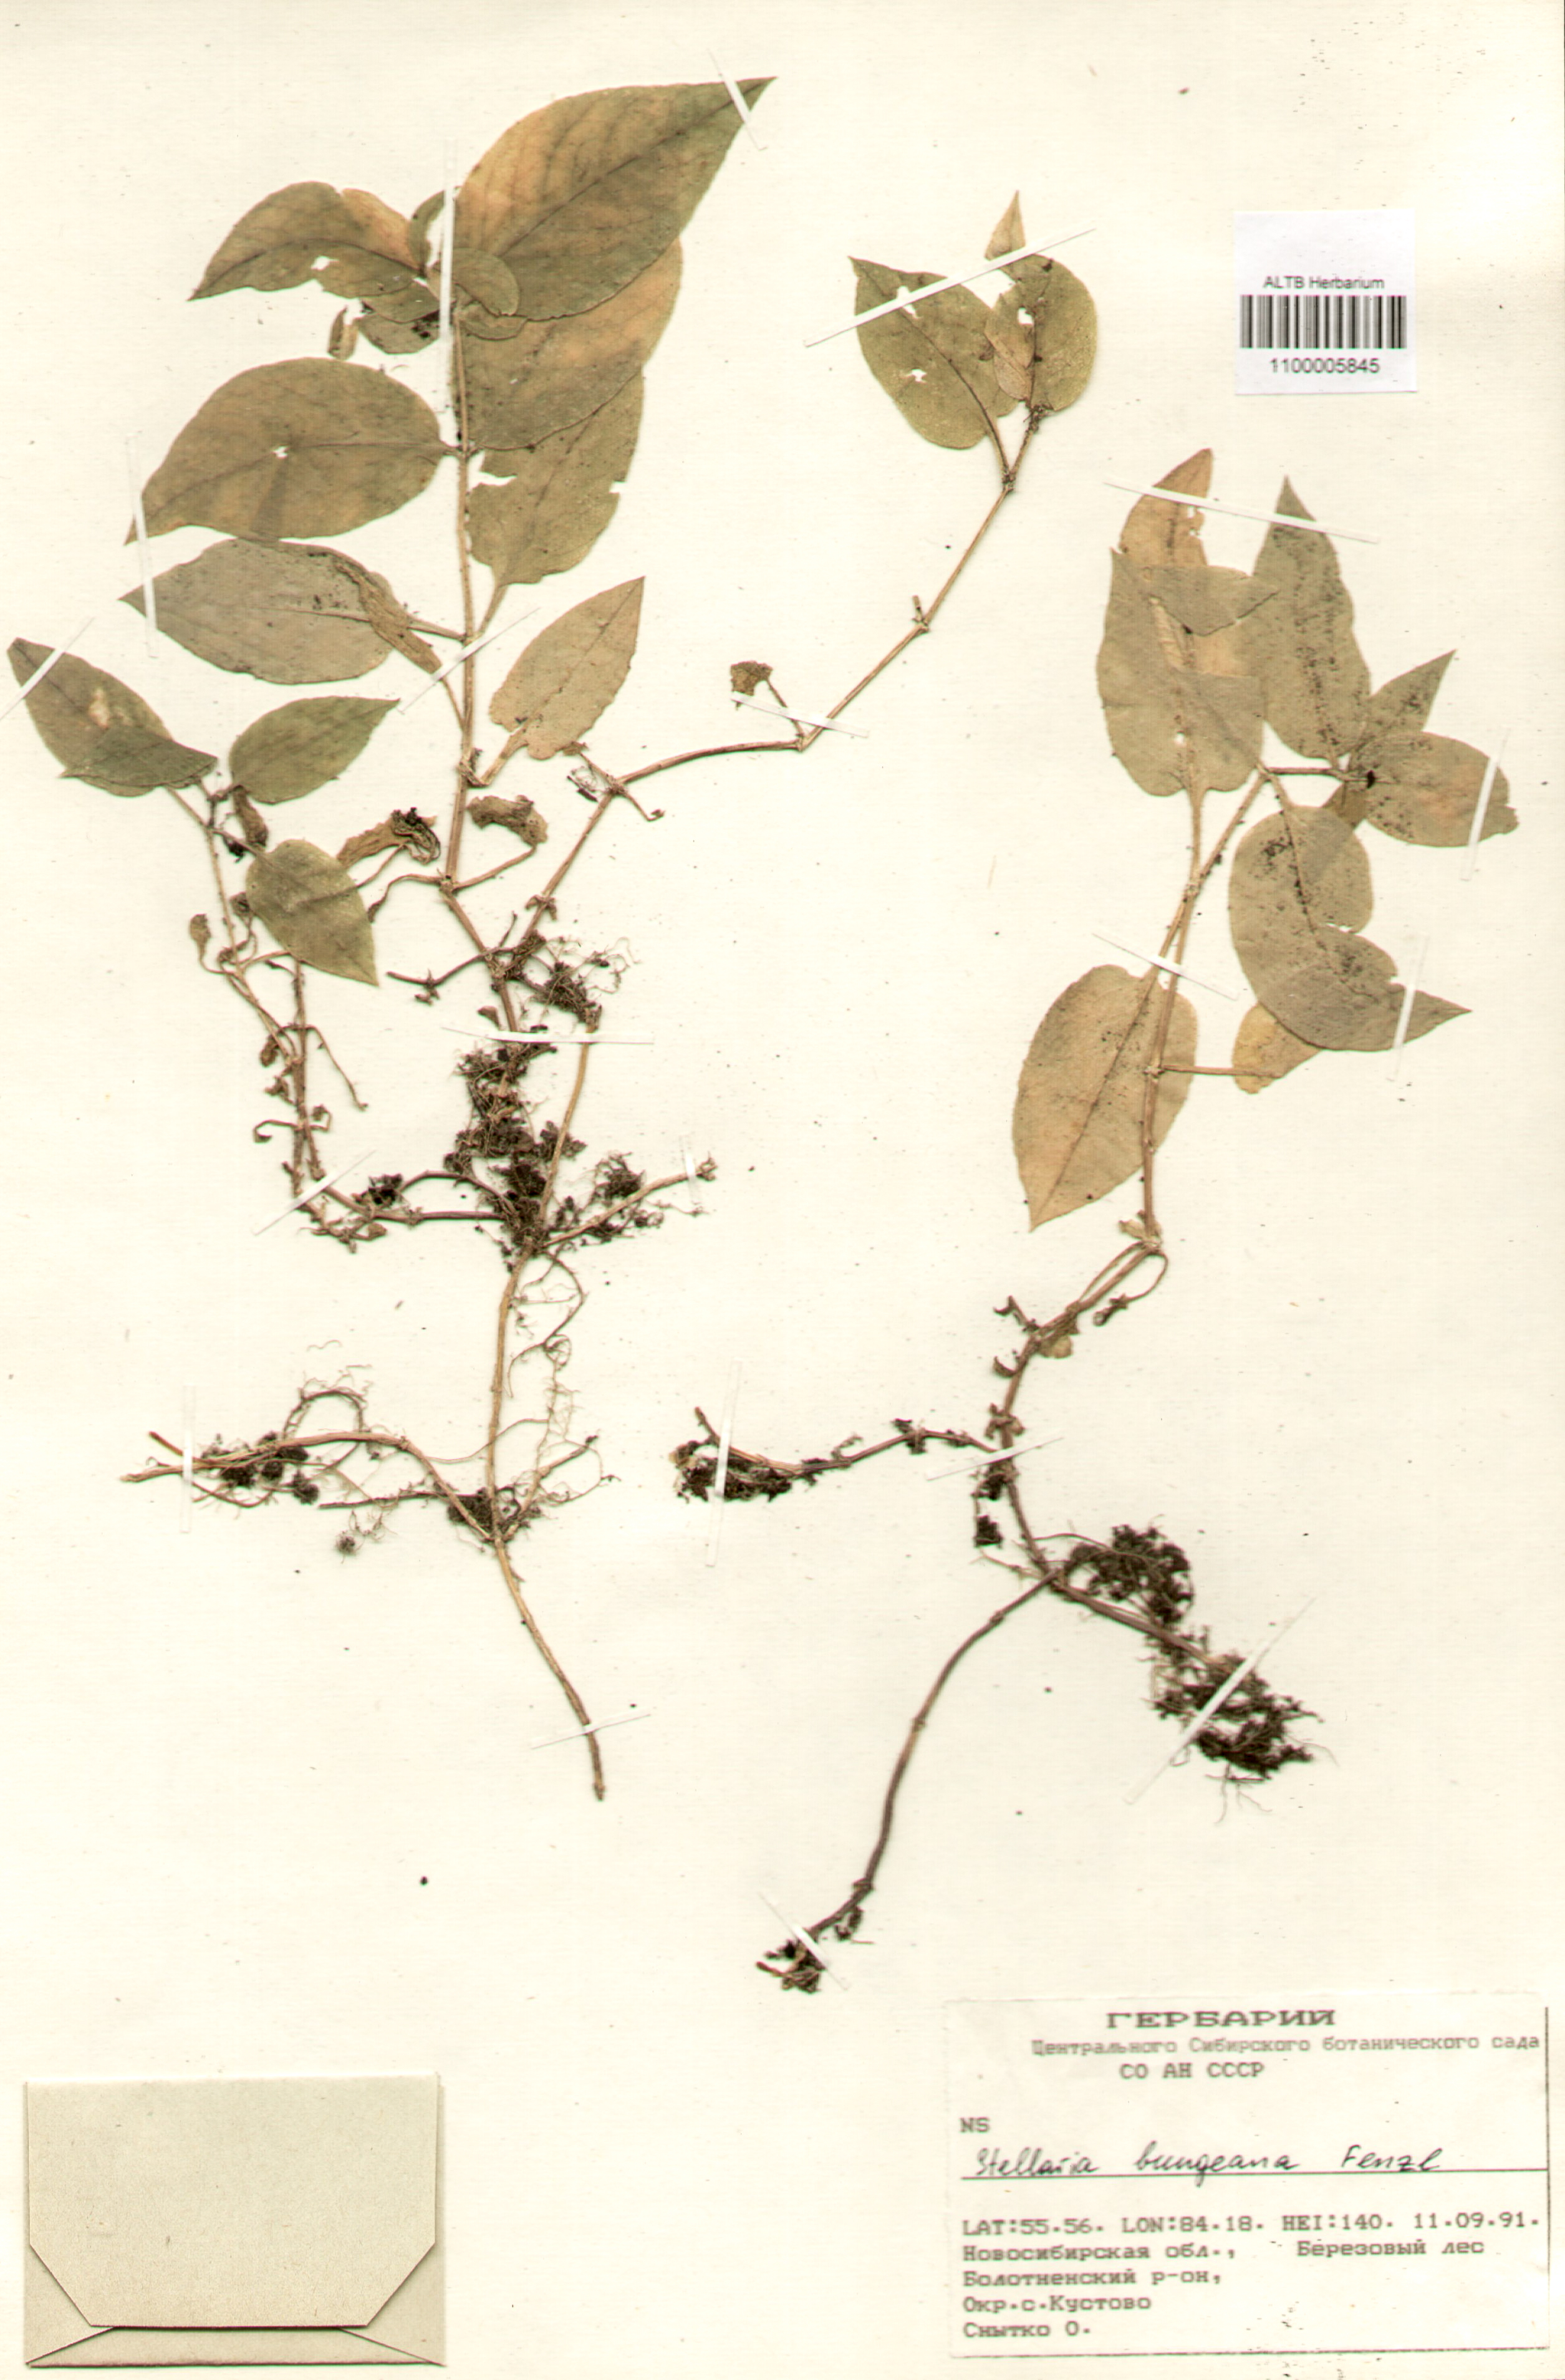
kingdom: Plantae
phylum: Tracheophyta
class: Magnoliopsida
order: Caryophyllales
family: Caryophyllaceae
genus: Stellaria
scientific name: Stellaria bungeana
